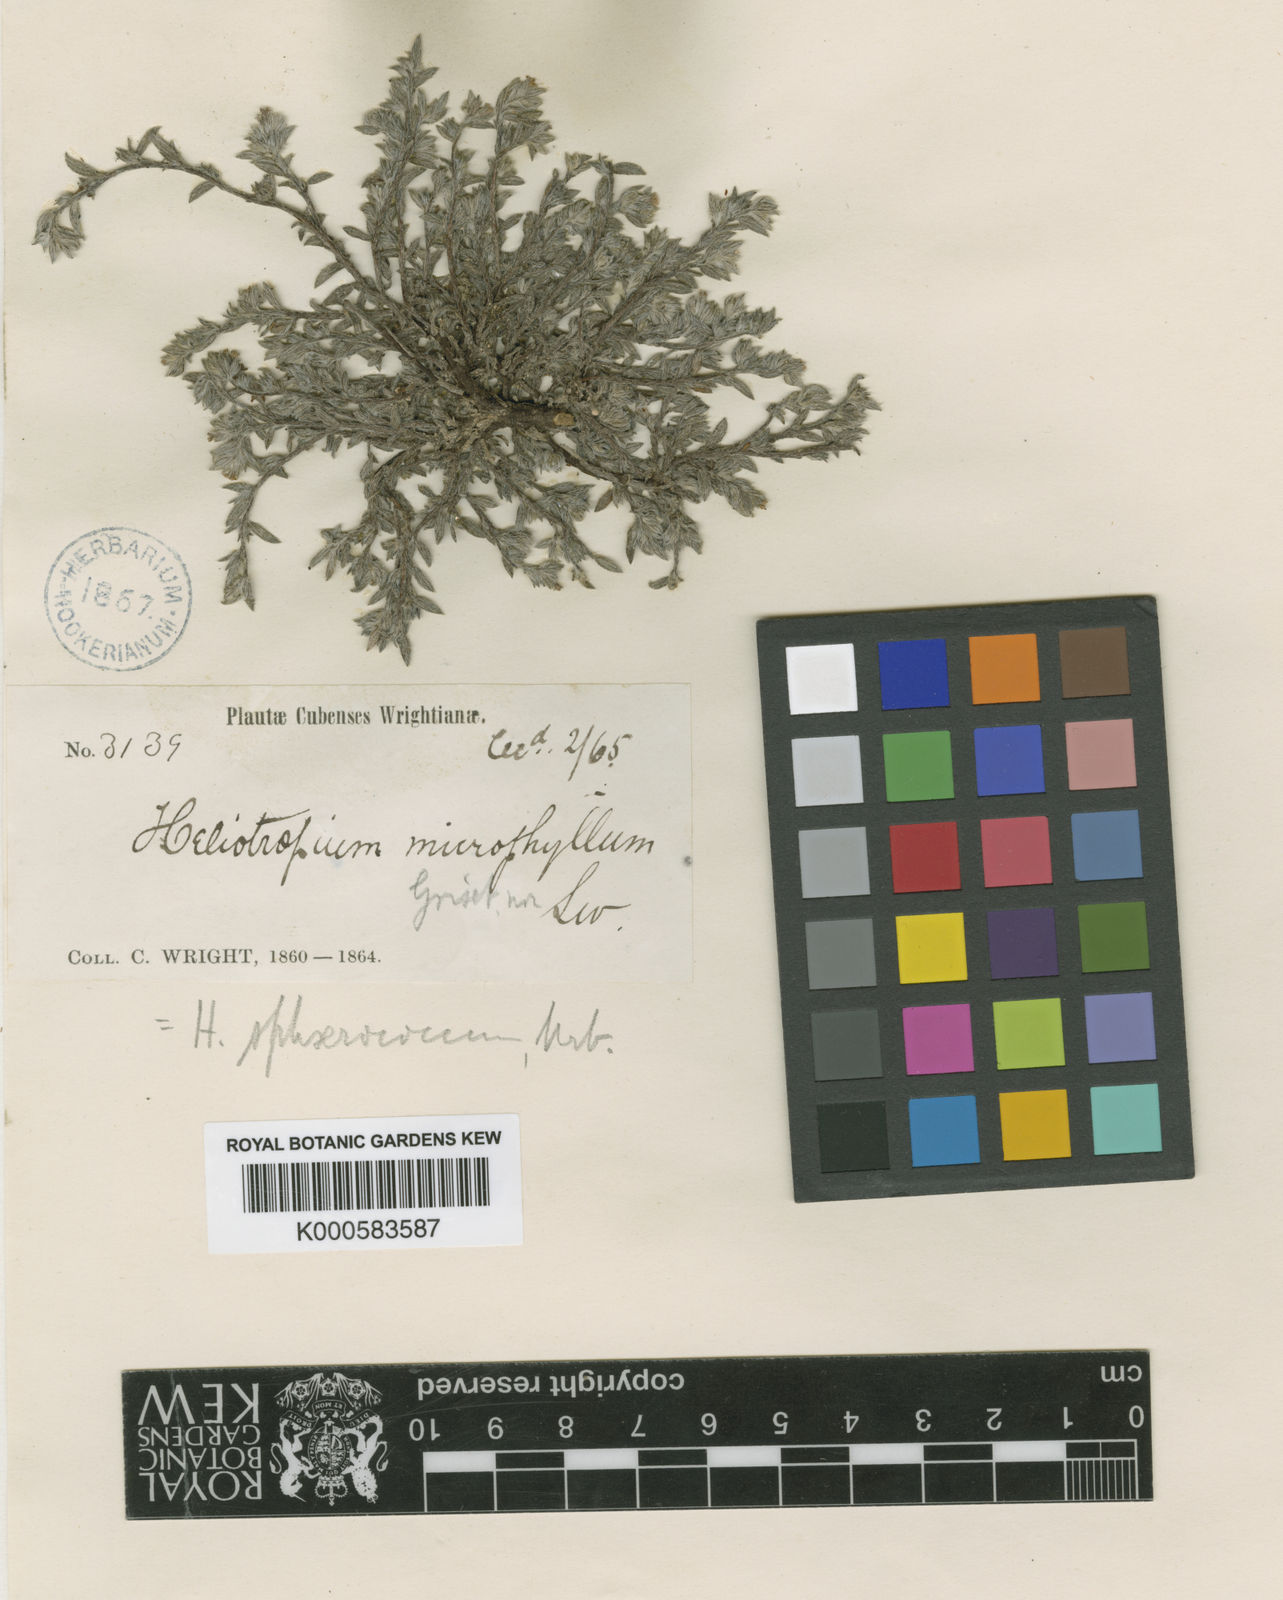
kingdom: Plantae
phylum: Tracheophyta
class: Magnoliopsida
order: Boraginales
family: Heliotropiaceae
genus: Euploca
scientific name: Euploca microphylla
